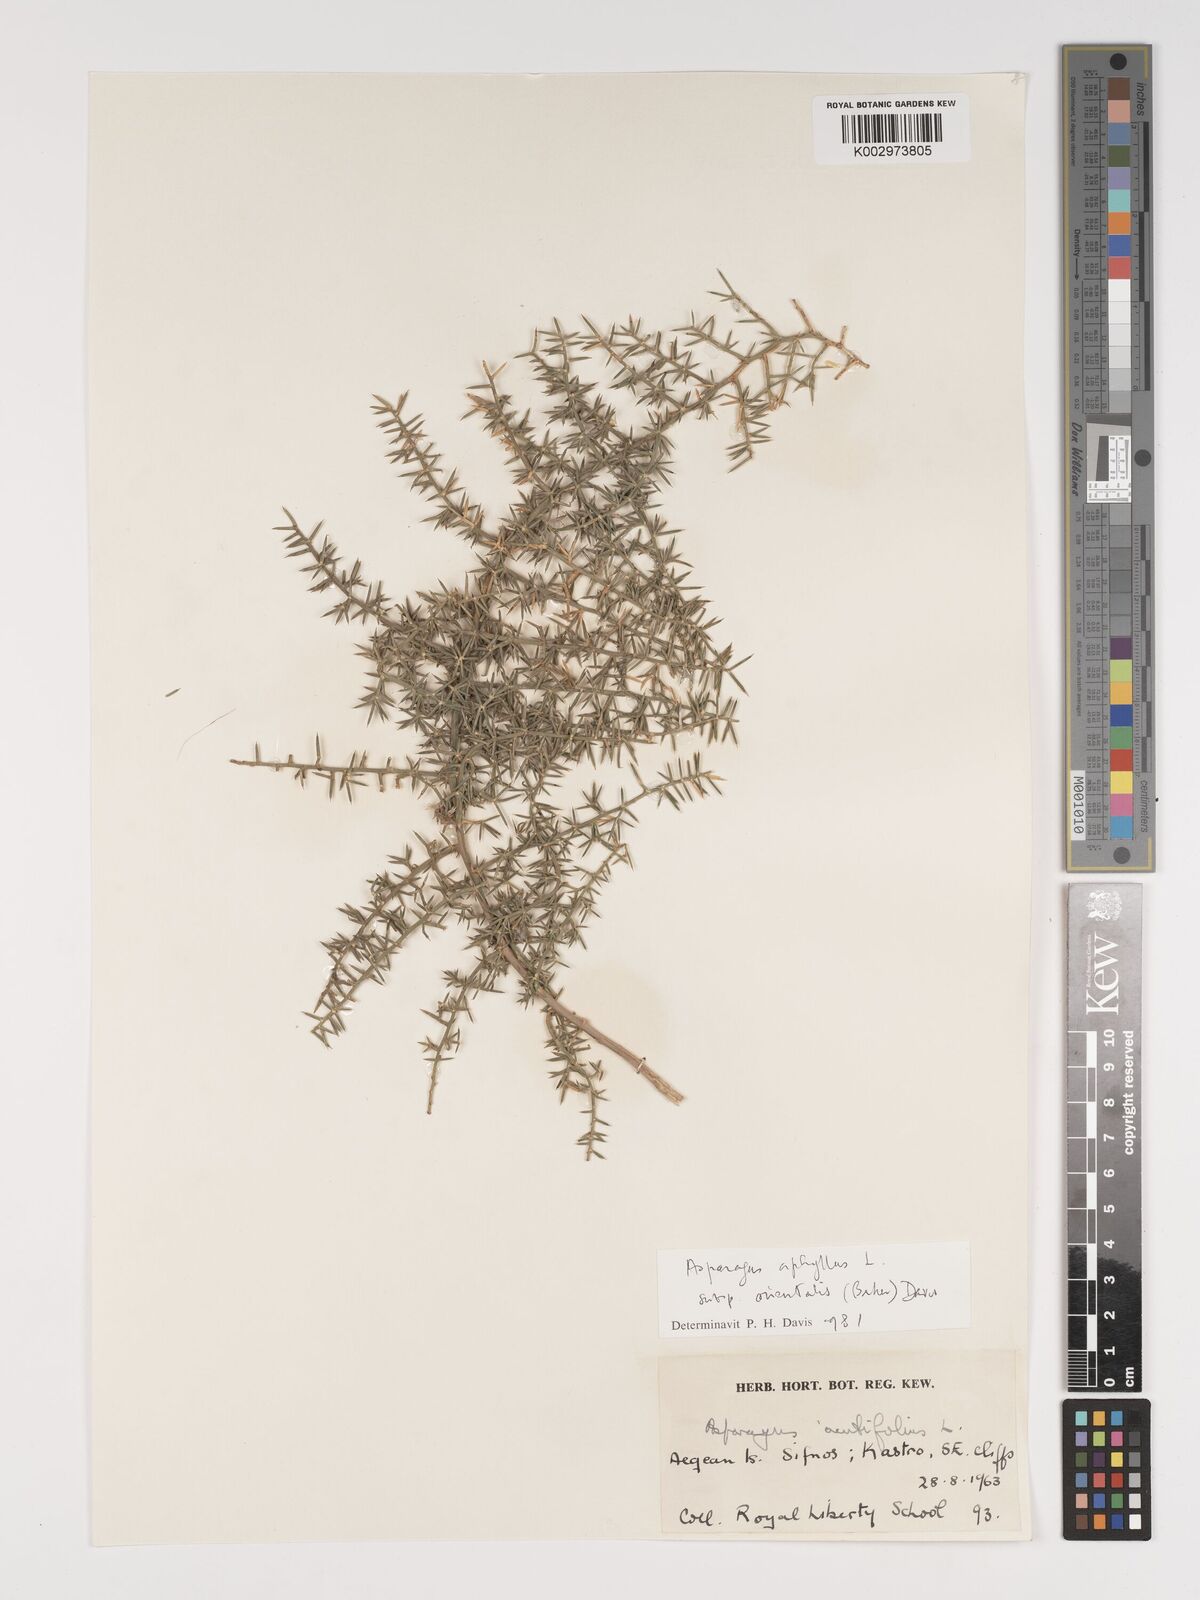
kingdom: Plantae
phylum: Tracheophyta
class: Liliopsida
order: Asparagales
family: Asparagaceae
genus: Asparagus
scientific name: Asparagus aphyllus
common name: Mediterranean asparagus
